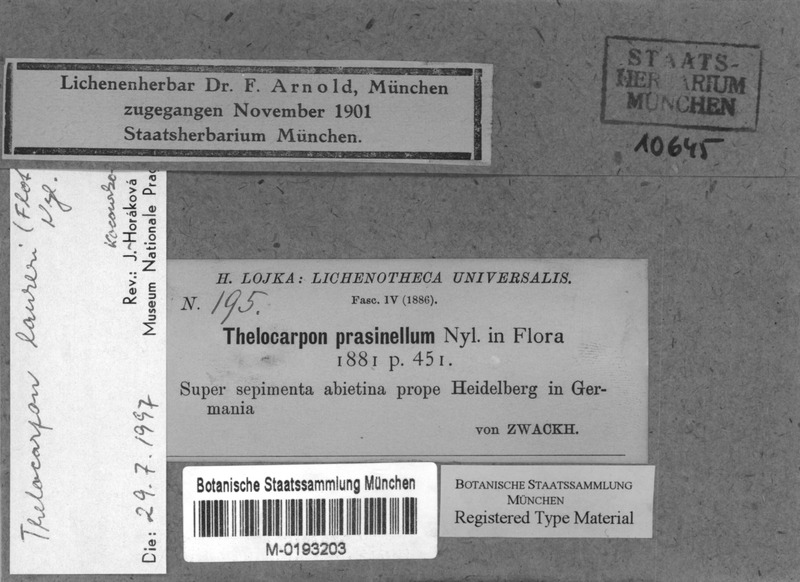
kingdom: Fungi
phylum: Ascomycota
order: Thelocarpales
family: Thelocarpaceae
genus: Thelocarpon
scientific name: Thelocarpon laureri
